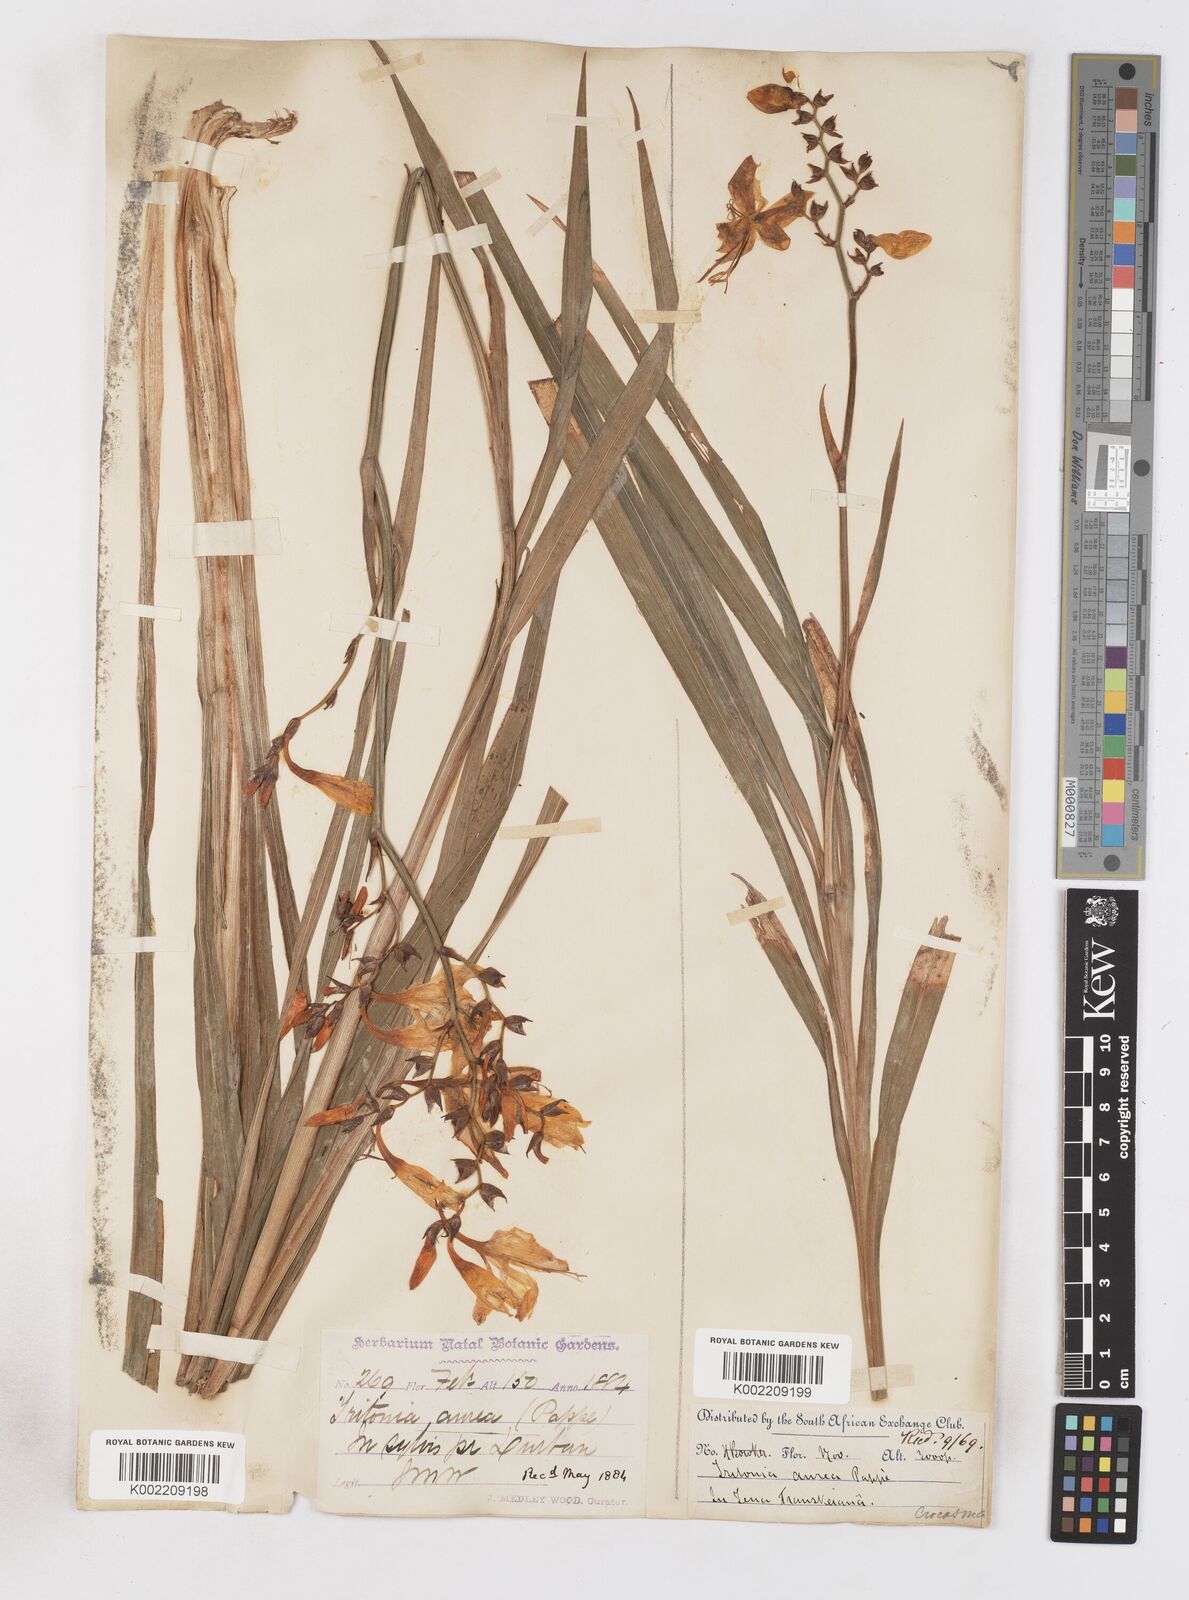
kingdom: Plantae
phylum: Tracheophyta
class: Liliopsida
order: Asparagales
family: Iridaceae
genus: Crocosmia
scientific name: Crocosmia aurea
